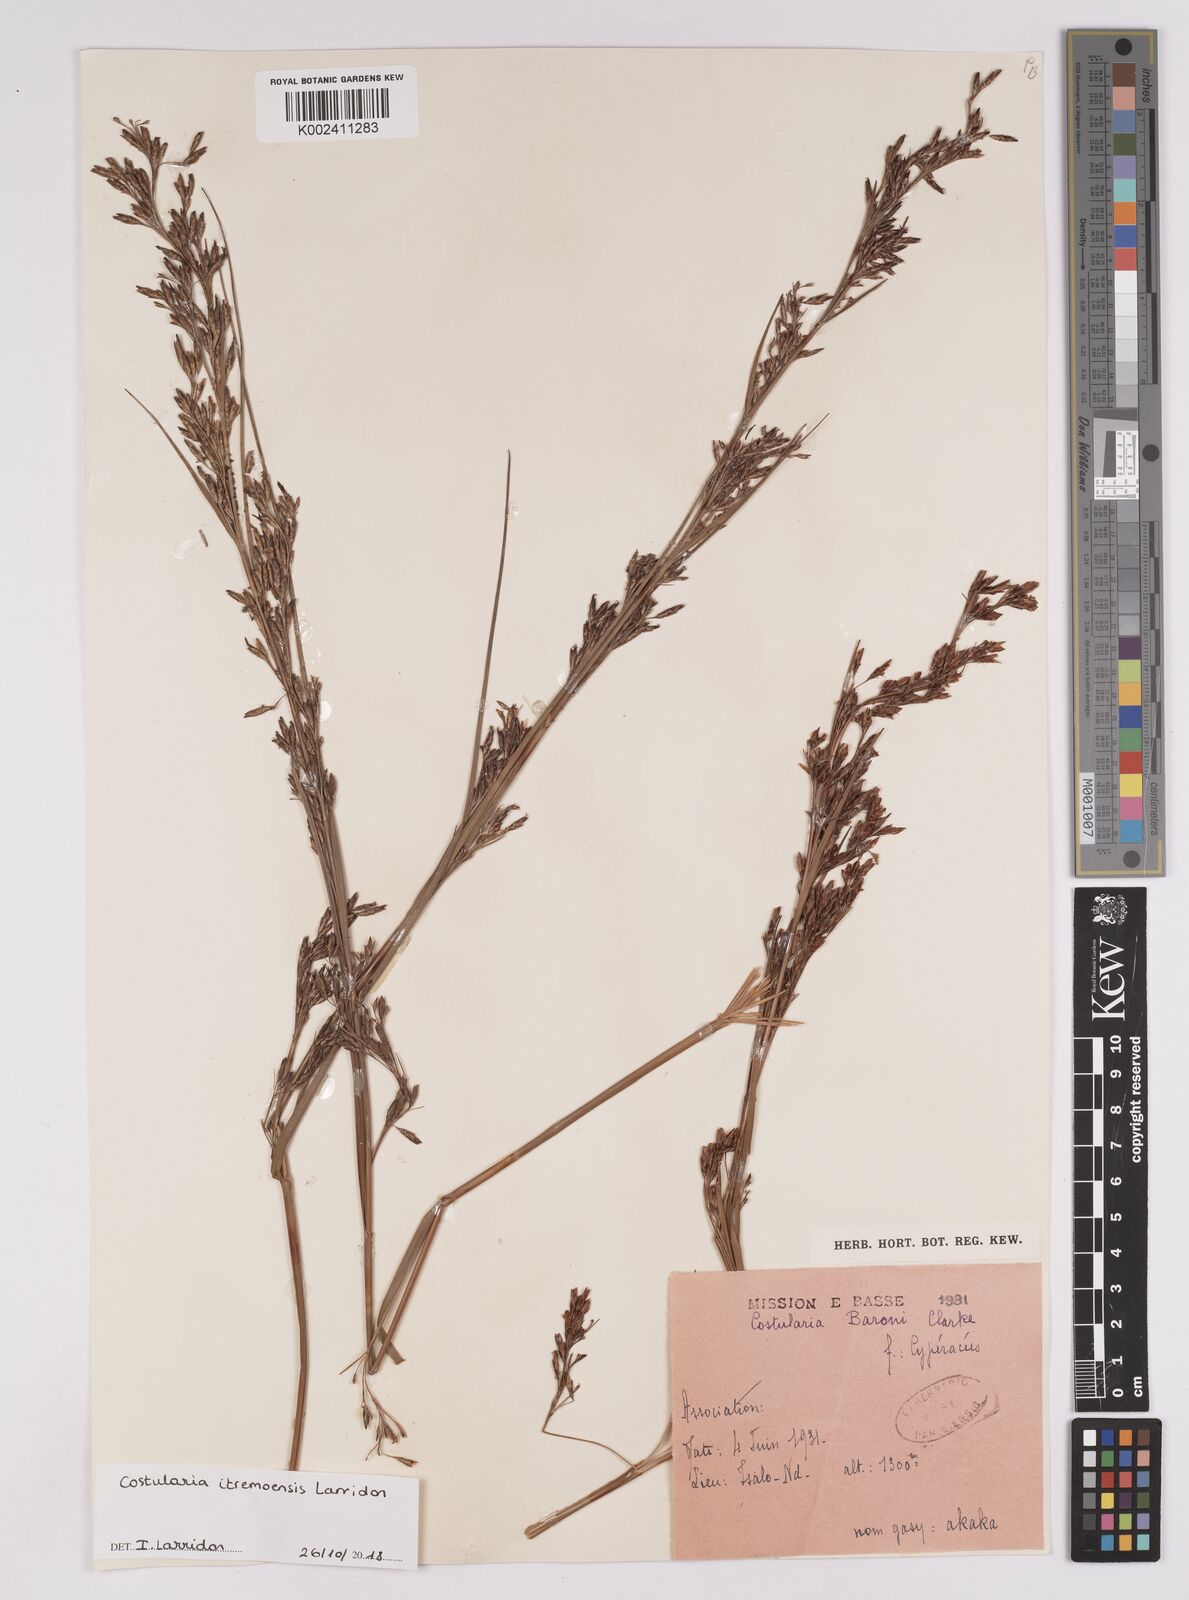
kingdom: Plantae
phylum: Tracheophyta
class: Liliopsida
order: Poales
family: Cyperaceae
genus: Costularia
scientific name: Costularia itremoensis
